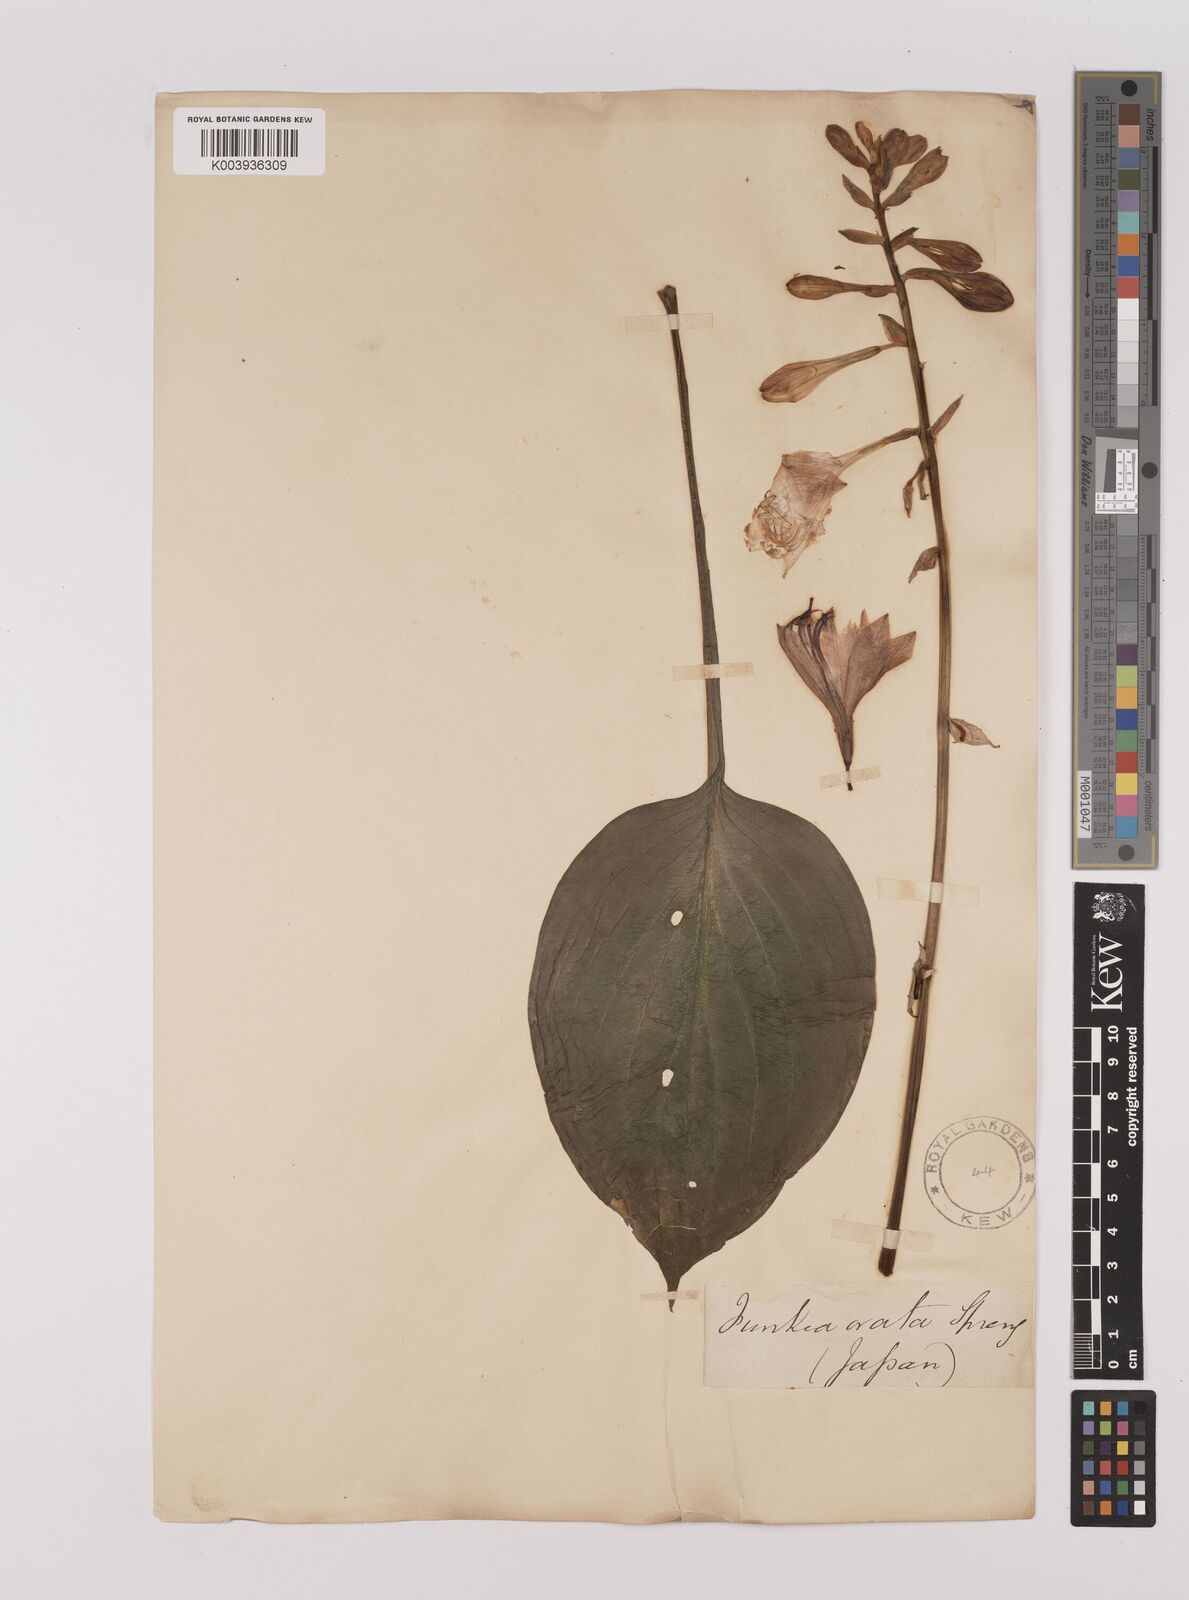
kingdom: Plantae
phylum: Tracheophyta
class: Liliopsida
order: Asparagales
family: Asparagaceae
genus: Hosta
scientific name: Hosta ventricosa
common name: Blue plantain-lily
